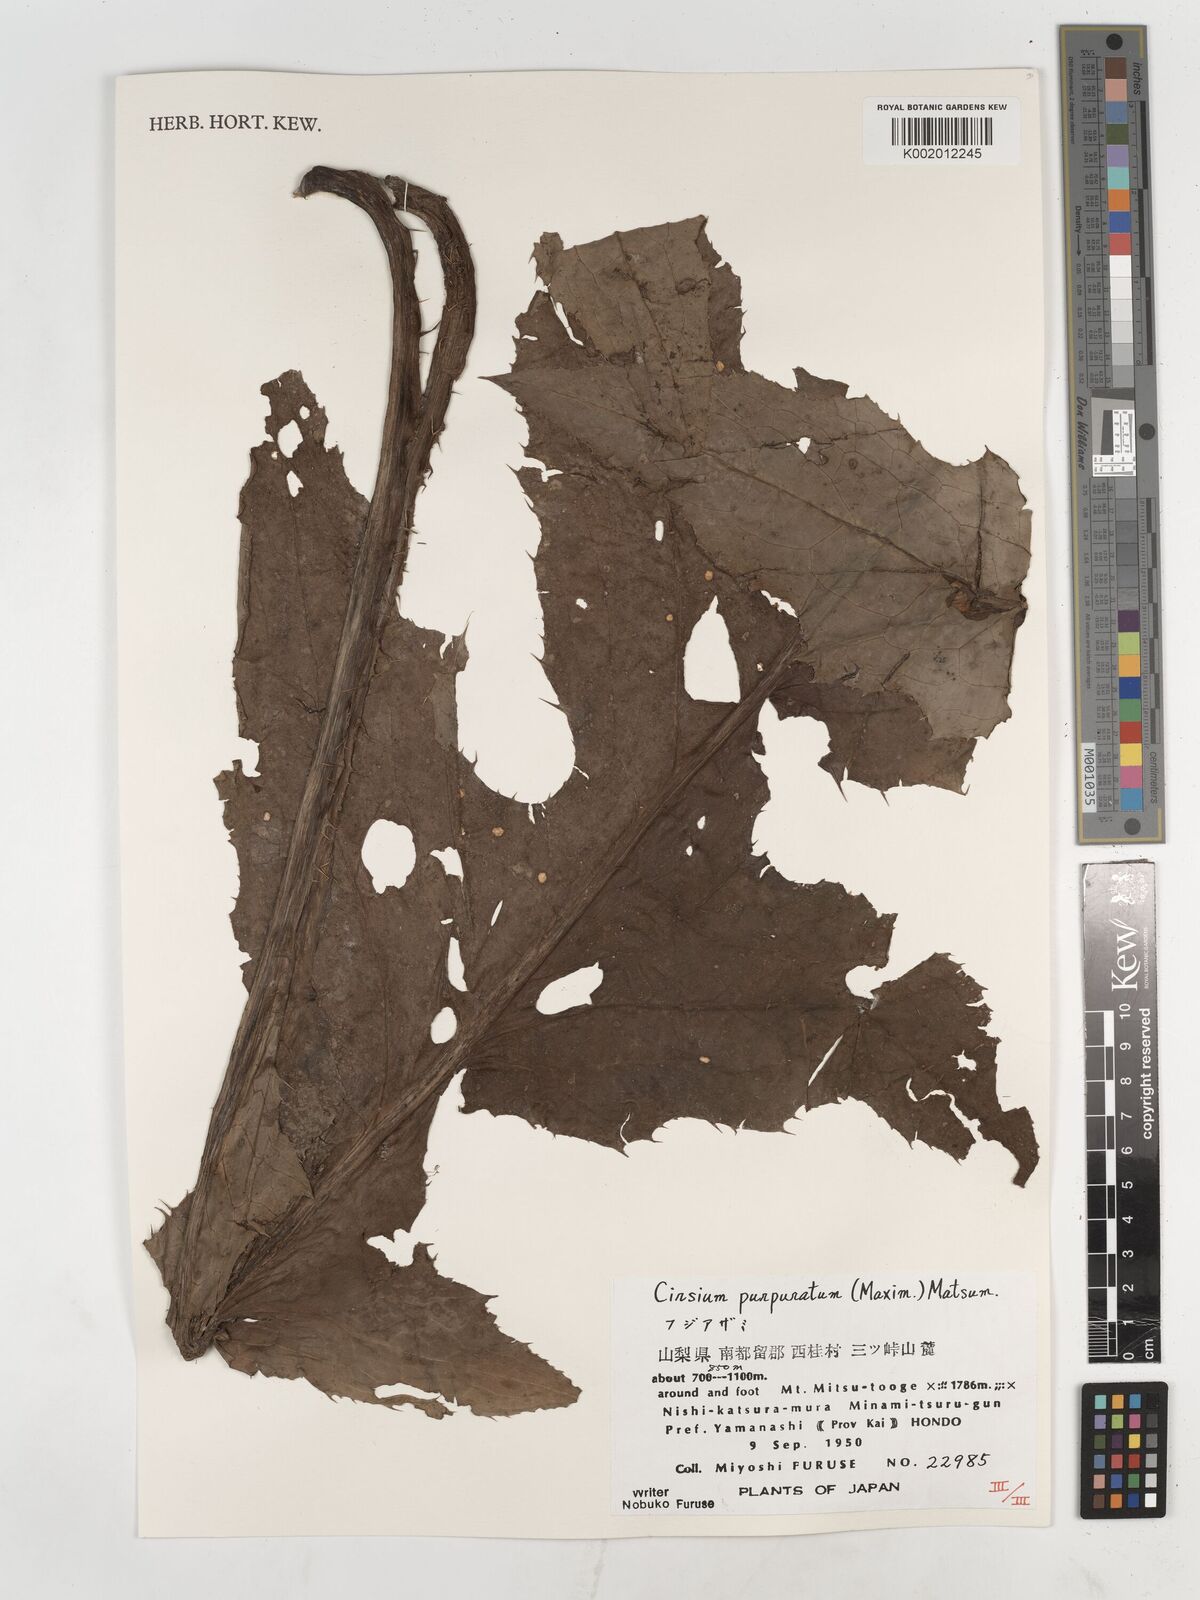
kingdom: Plantae
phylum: Tracheophyta
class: Magnoliopsida
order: Asterales
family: Asteraceae
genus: Cirsium
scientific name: Cirsium purpuratum
